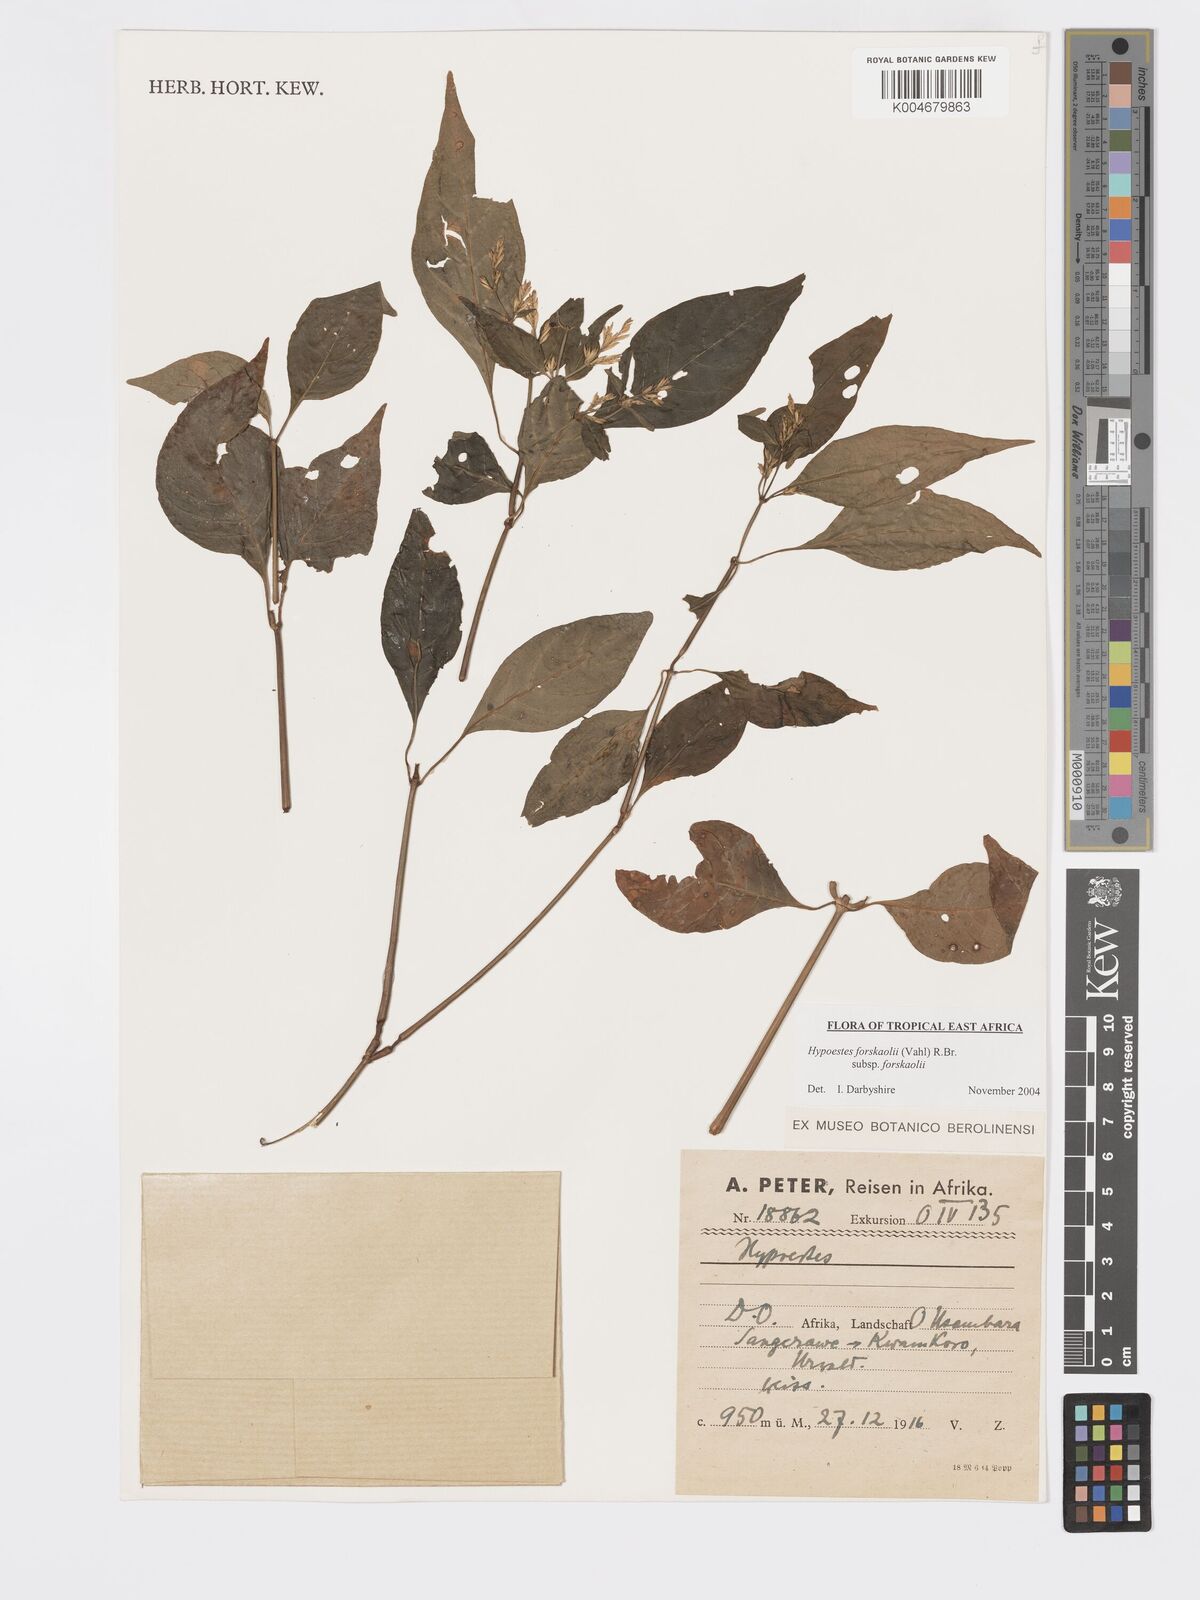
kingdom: Plantae
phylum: Tracheophyta
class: Magnoliopsida
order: Lamiales
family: Acanthaceae
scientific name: Acanthaceae
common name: Acanthaceae
